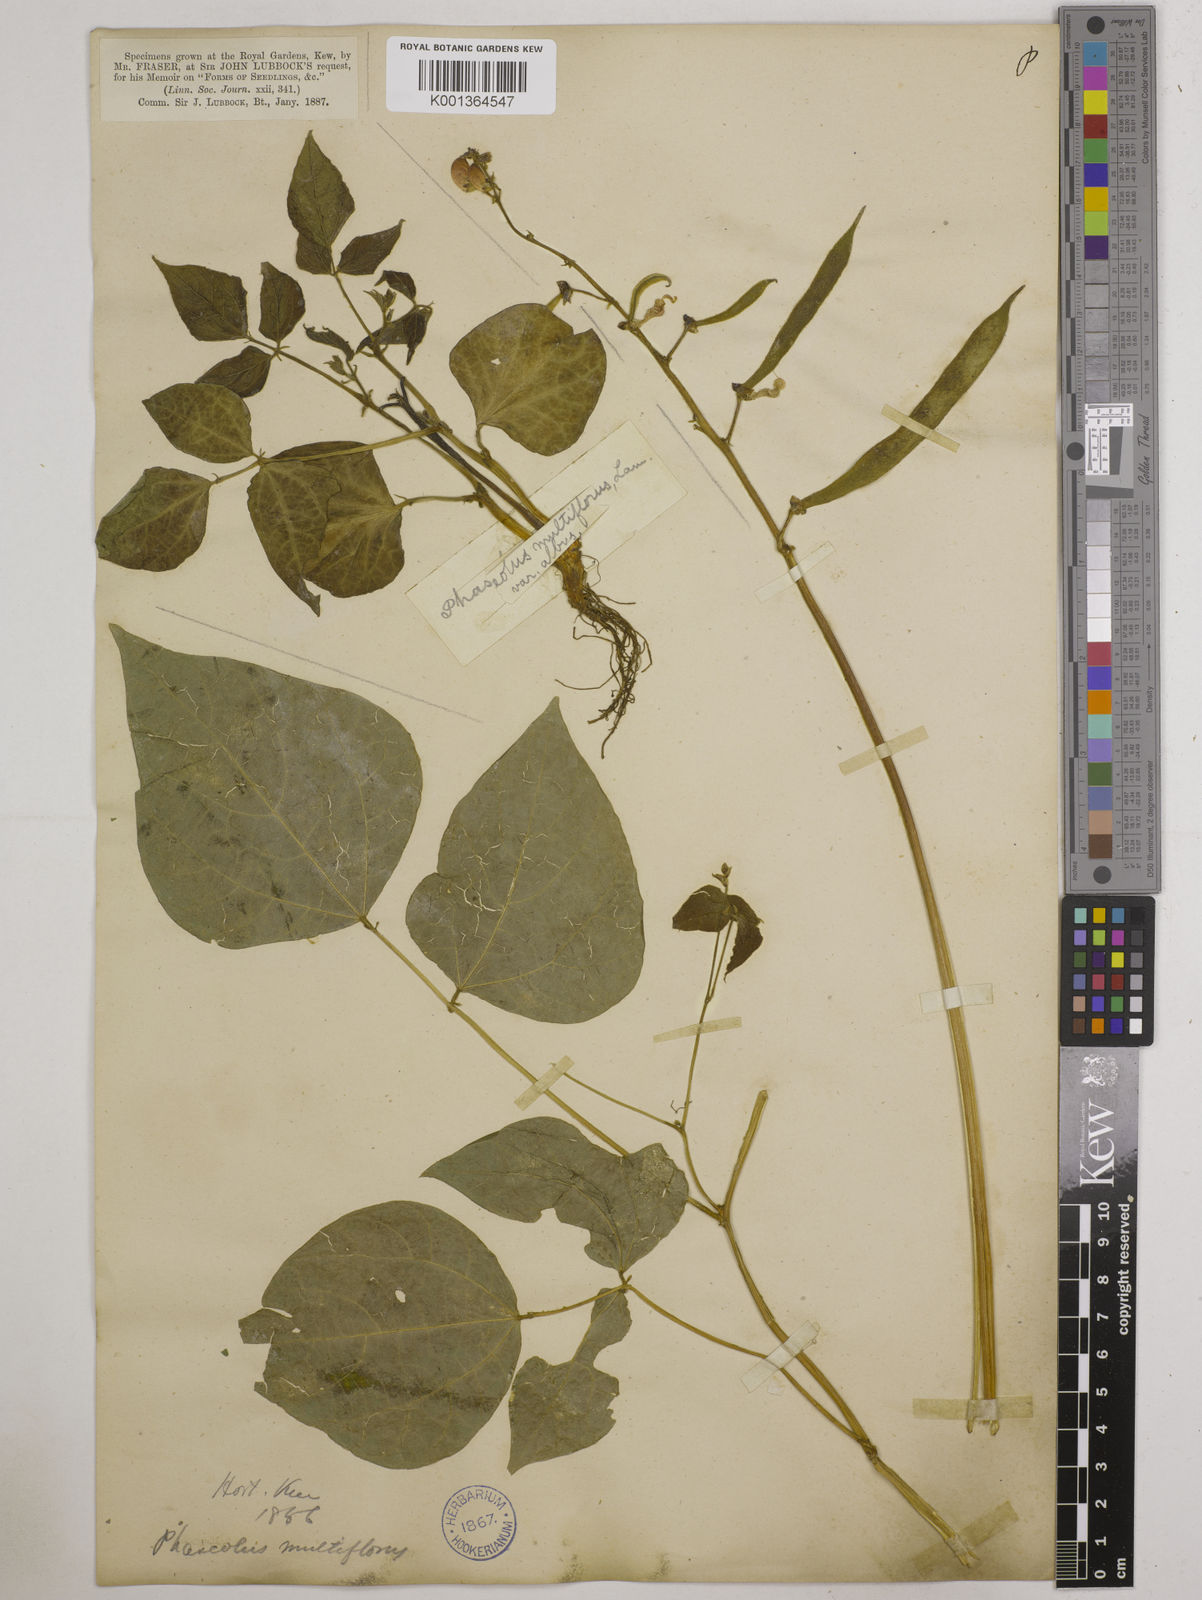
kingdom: Plantae
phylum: Tracheophyta
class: Magnoliopsida
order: Fabales
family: Fabaceae
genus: Phaseolus
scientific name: Phaseolus coccineus
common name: Runner bean
